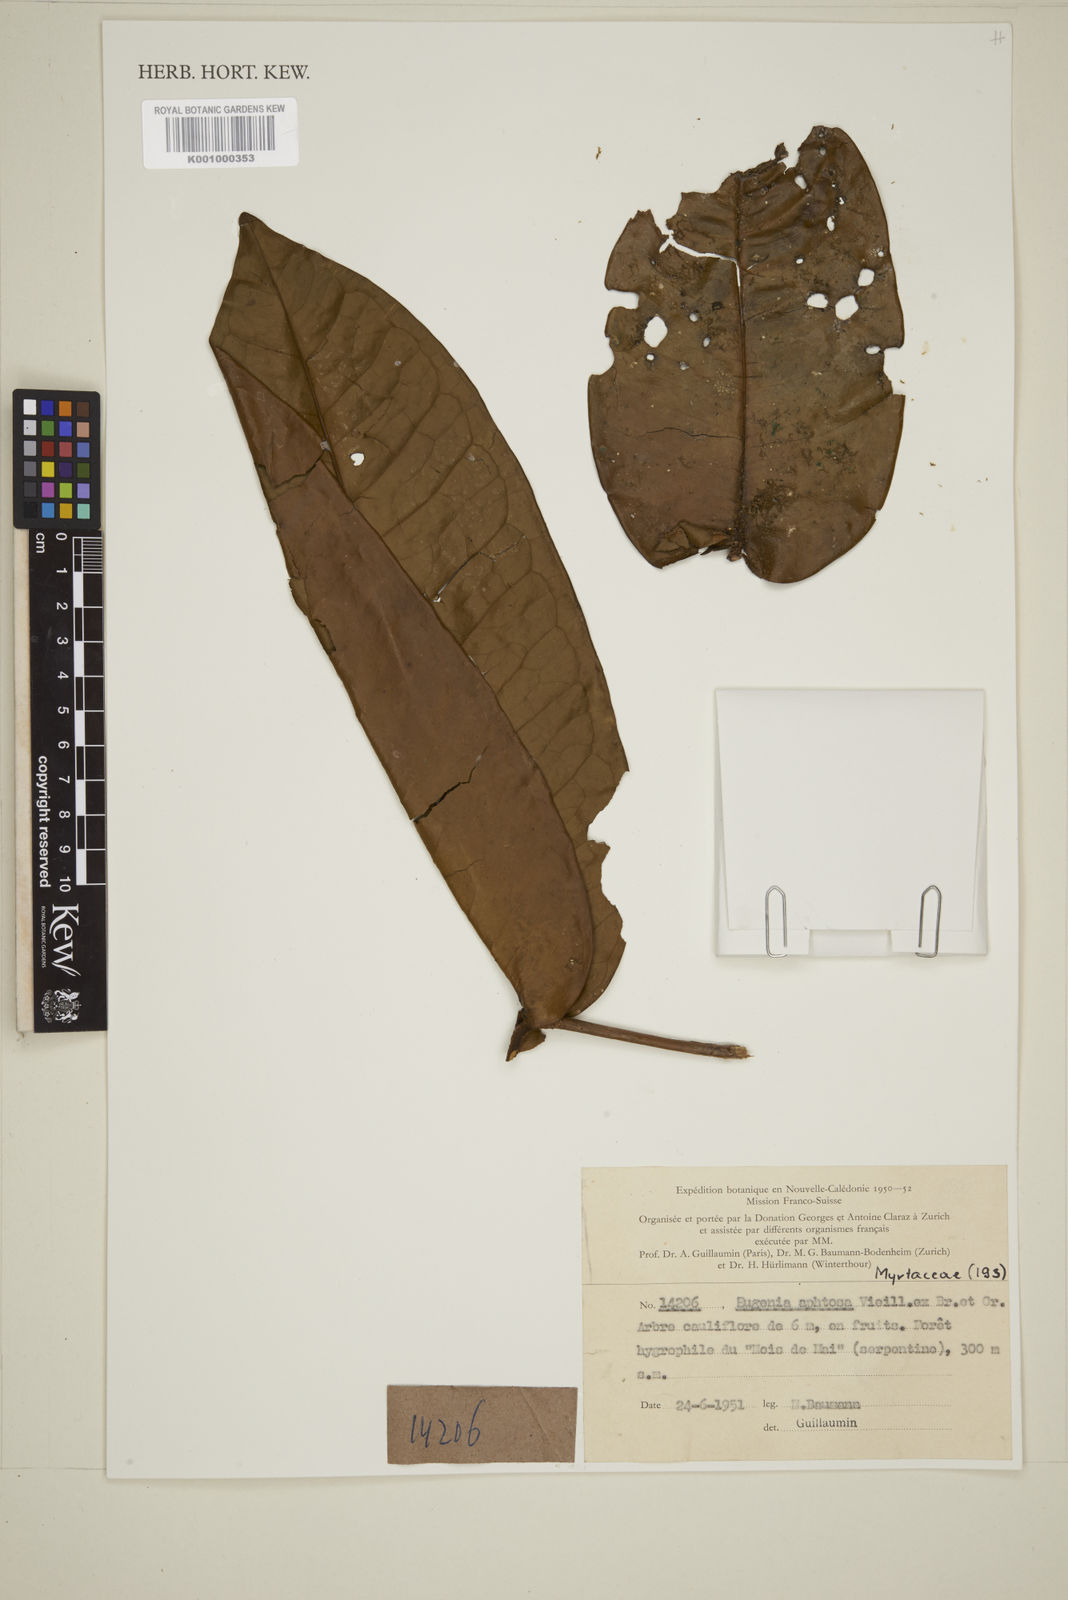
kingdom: Plantae
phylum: Tracheophyta
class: Magnoliopsida
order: Myrtales
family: Myrtaceae
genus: Gossia
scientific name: Gossia aphthosa
